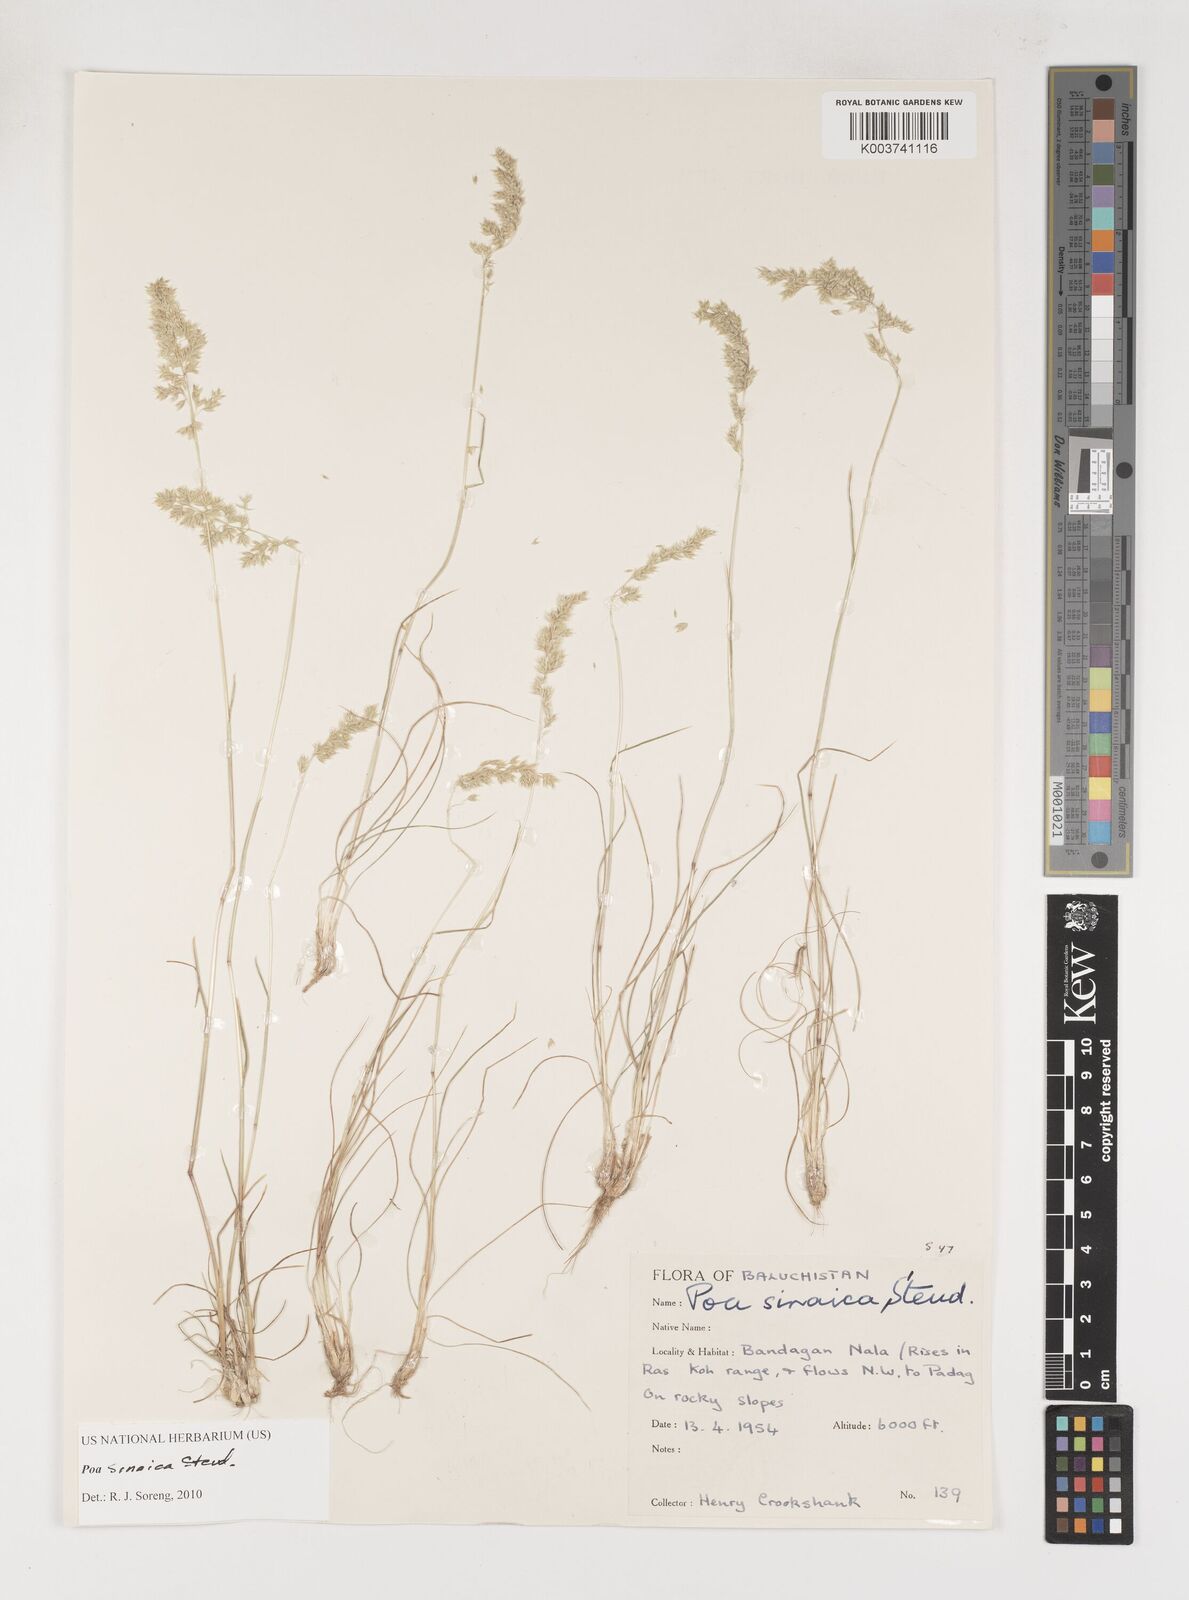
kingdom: Plantae
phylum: Tracheophyta
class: Liliopsida
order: Poales
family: Poaceae
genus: Poa
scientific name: Poa sinaica
